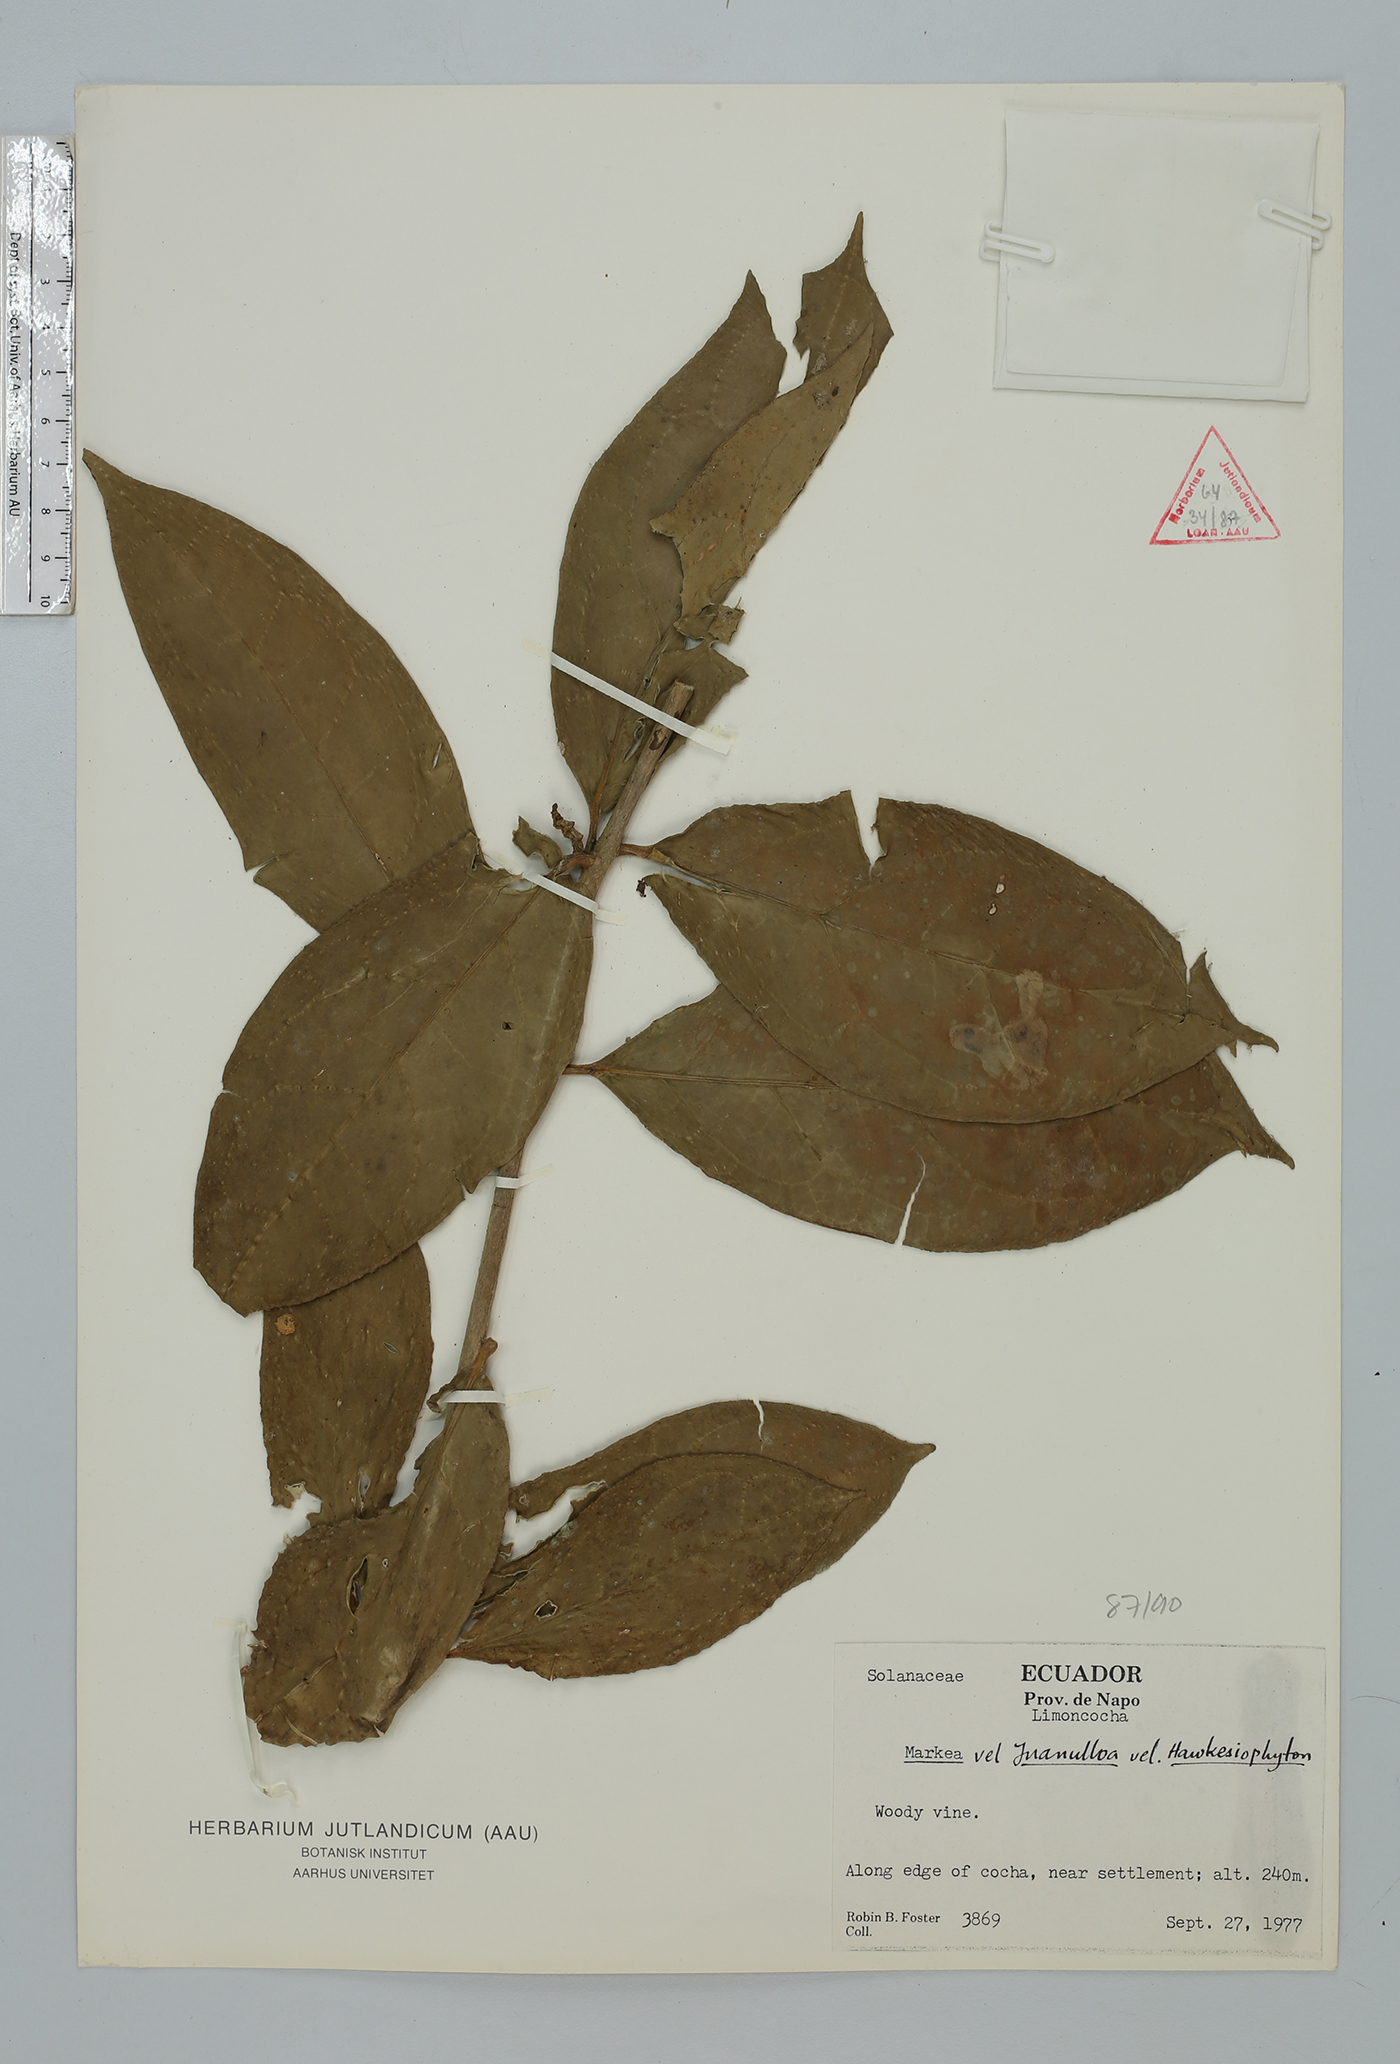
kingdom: Plantae
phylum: Tracheophyta
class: Magnoliopsida
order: Solanales
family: Solanaceae
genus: Hawkesiophyton
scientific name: Hawkesiophyton ochraceum
